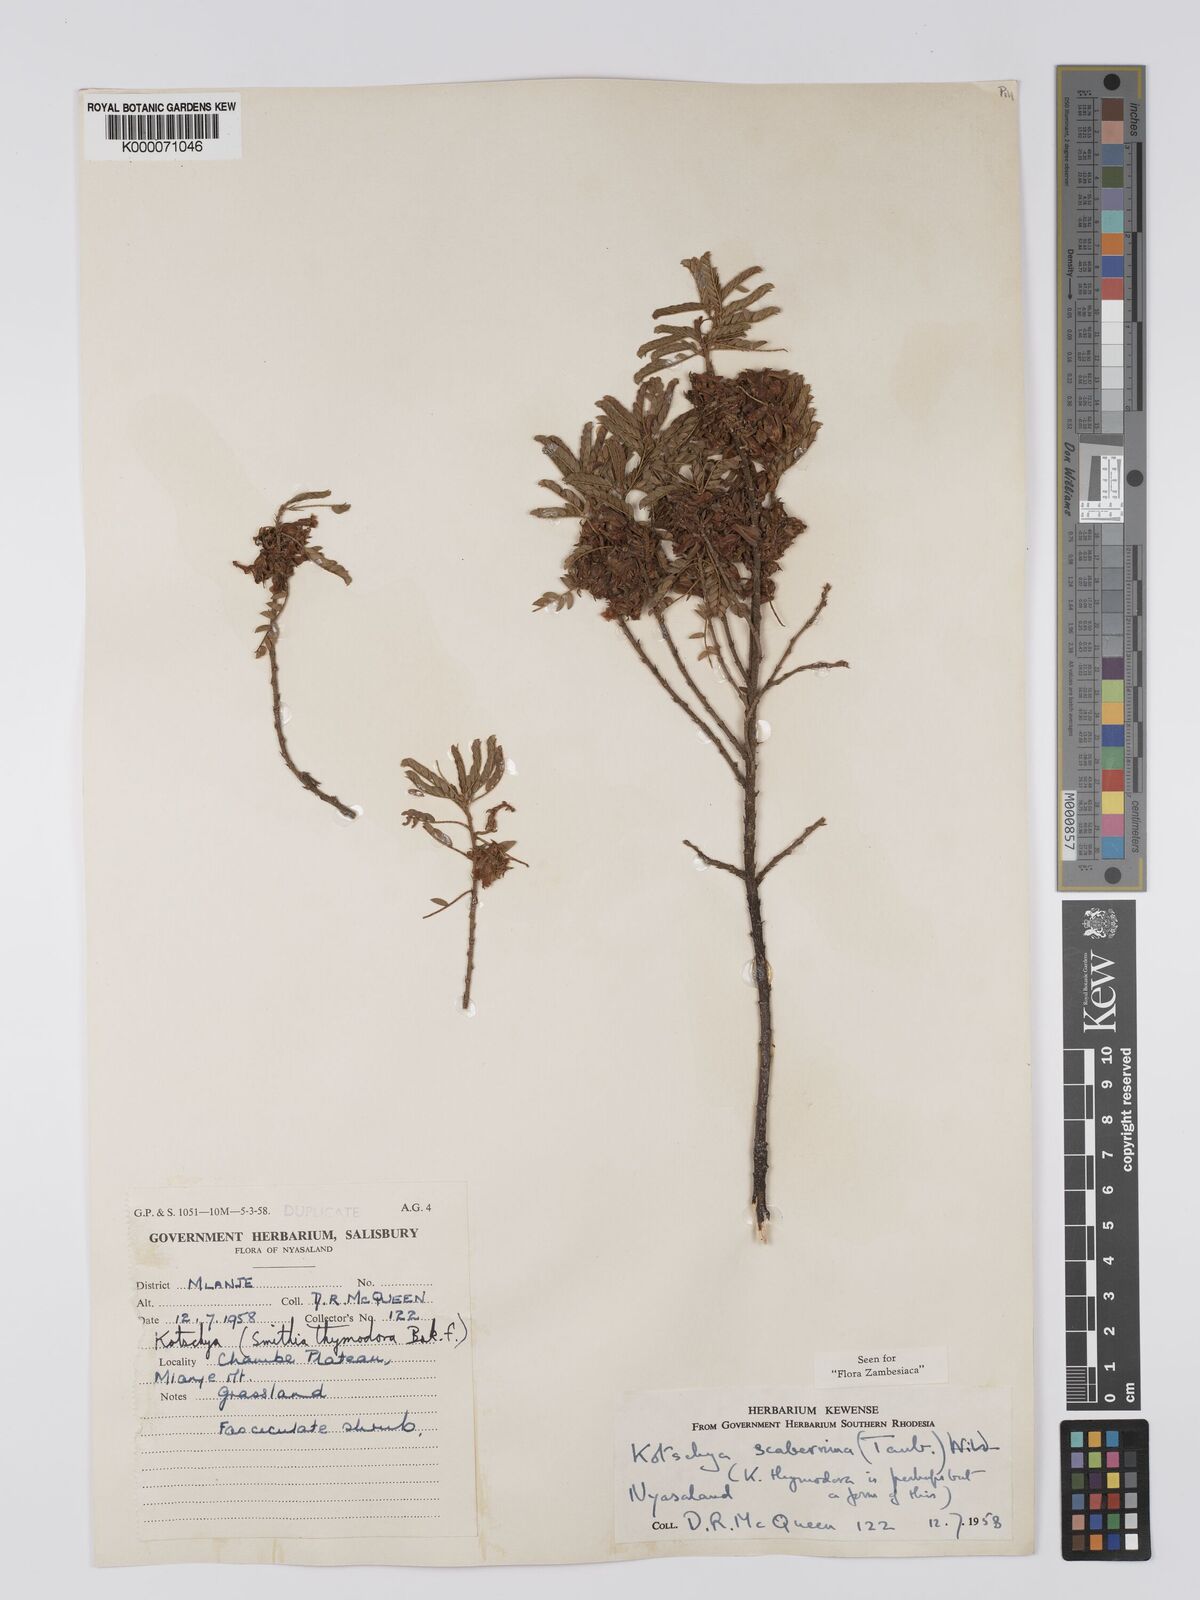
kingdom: Plantae
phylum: Tracheophyta
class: Magnoliopsida
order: Fabales
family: Fabaceae
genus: Kotschya
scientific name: Kotschya scaberrima
